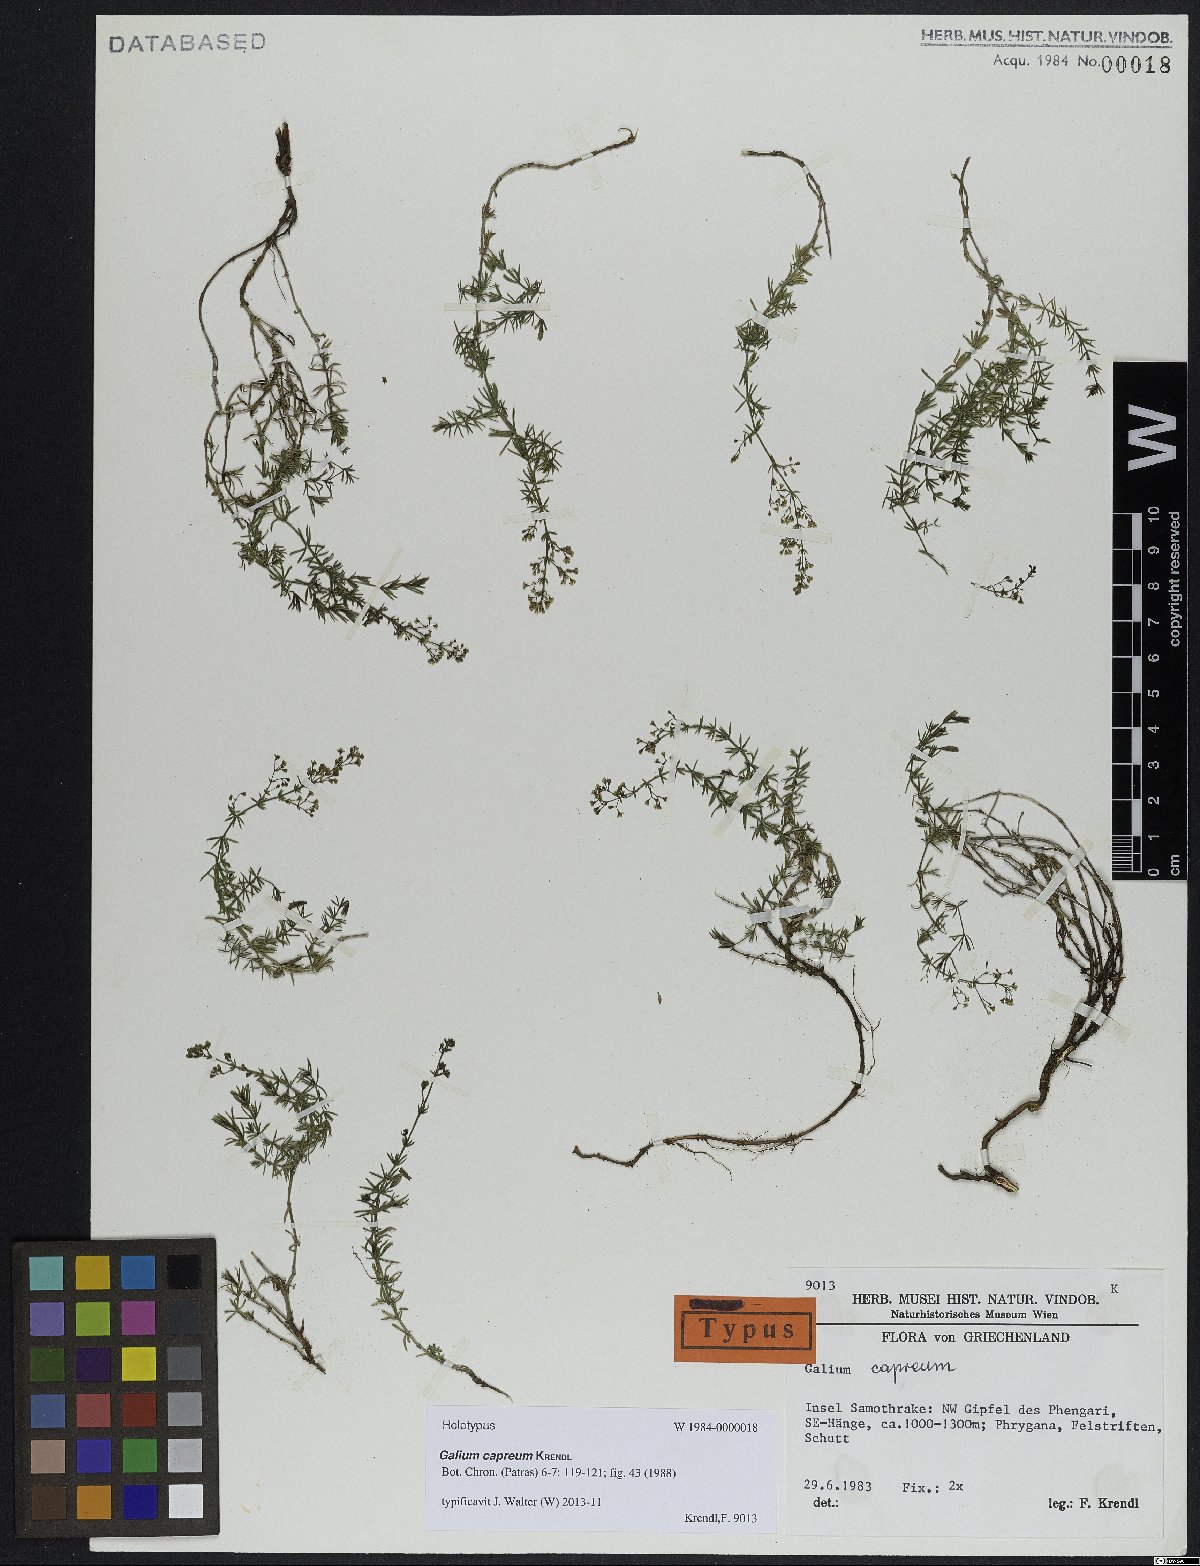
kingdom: Plantae
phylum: Tracheophyta
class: Magnoliopsida
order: Gentianales
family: Rubiaceae
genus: Galium
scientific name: Galium capreum
